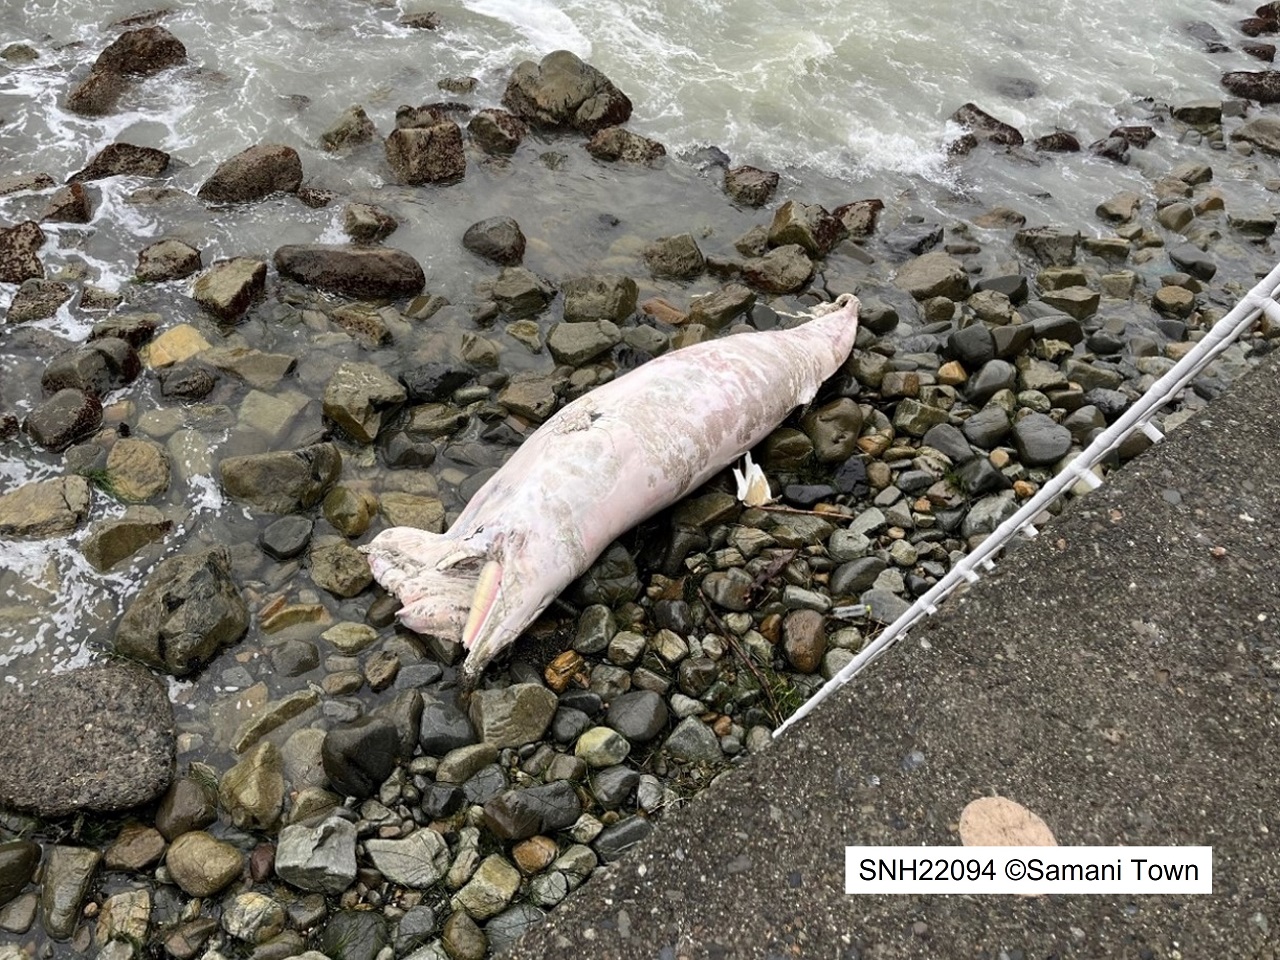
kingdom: Animalia
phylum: Chordata
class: Mammalia
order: Cetacea
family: Balaenopteridae
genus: Balaenoptera
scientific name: Balaenoptera acutorostrata
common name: Minke whale
